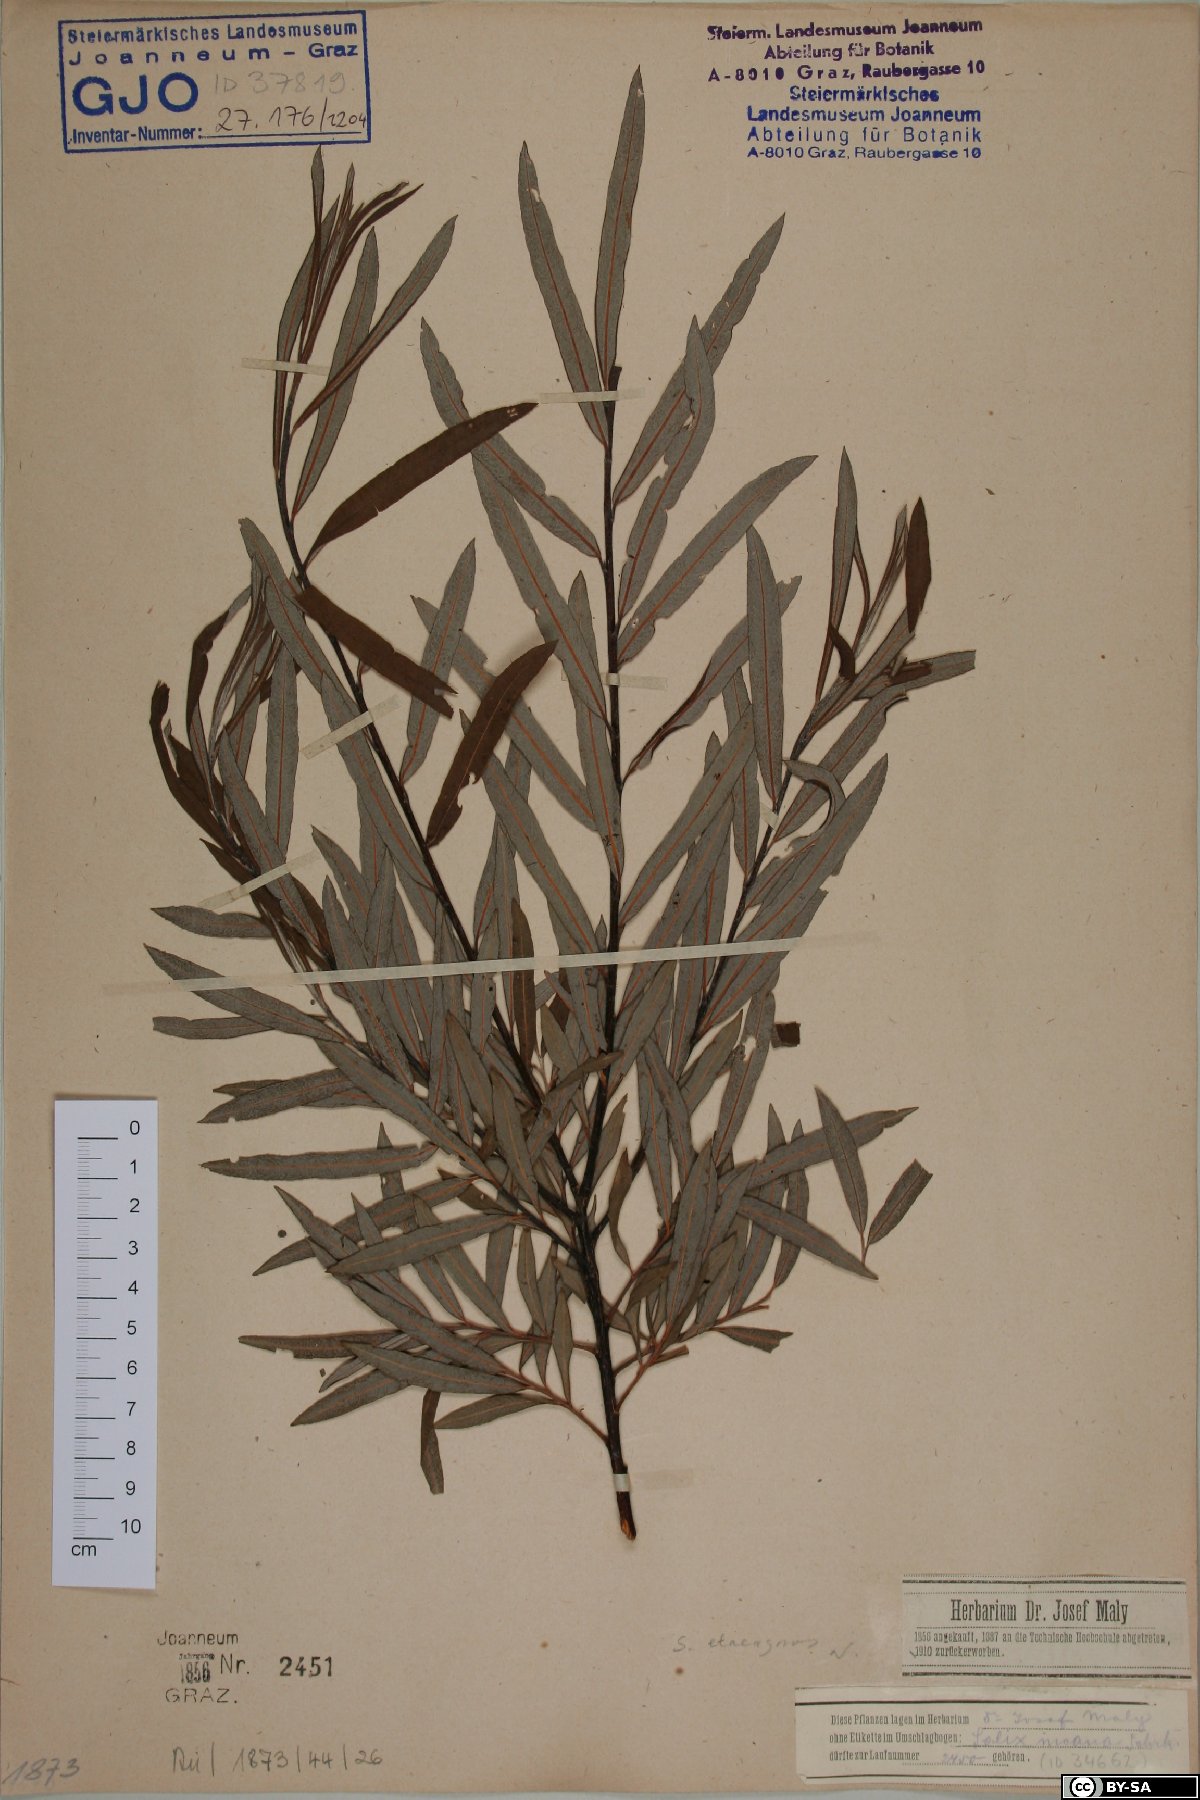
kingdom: Plantae
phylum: Tracheophyta
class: Magnoliopsida
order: Malpighiales
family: Salicaceae
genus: Salix
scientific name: Salix eleagnos
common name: Elaeagnus willow
